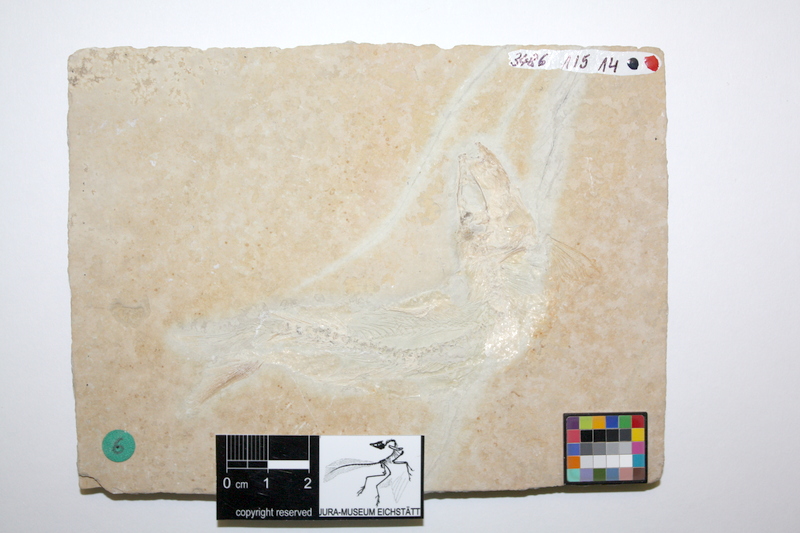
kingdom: Animalia
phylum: Chordata
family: Ascalaboidae
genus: Tharsis
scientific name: Tharsis dubius
